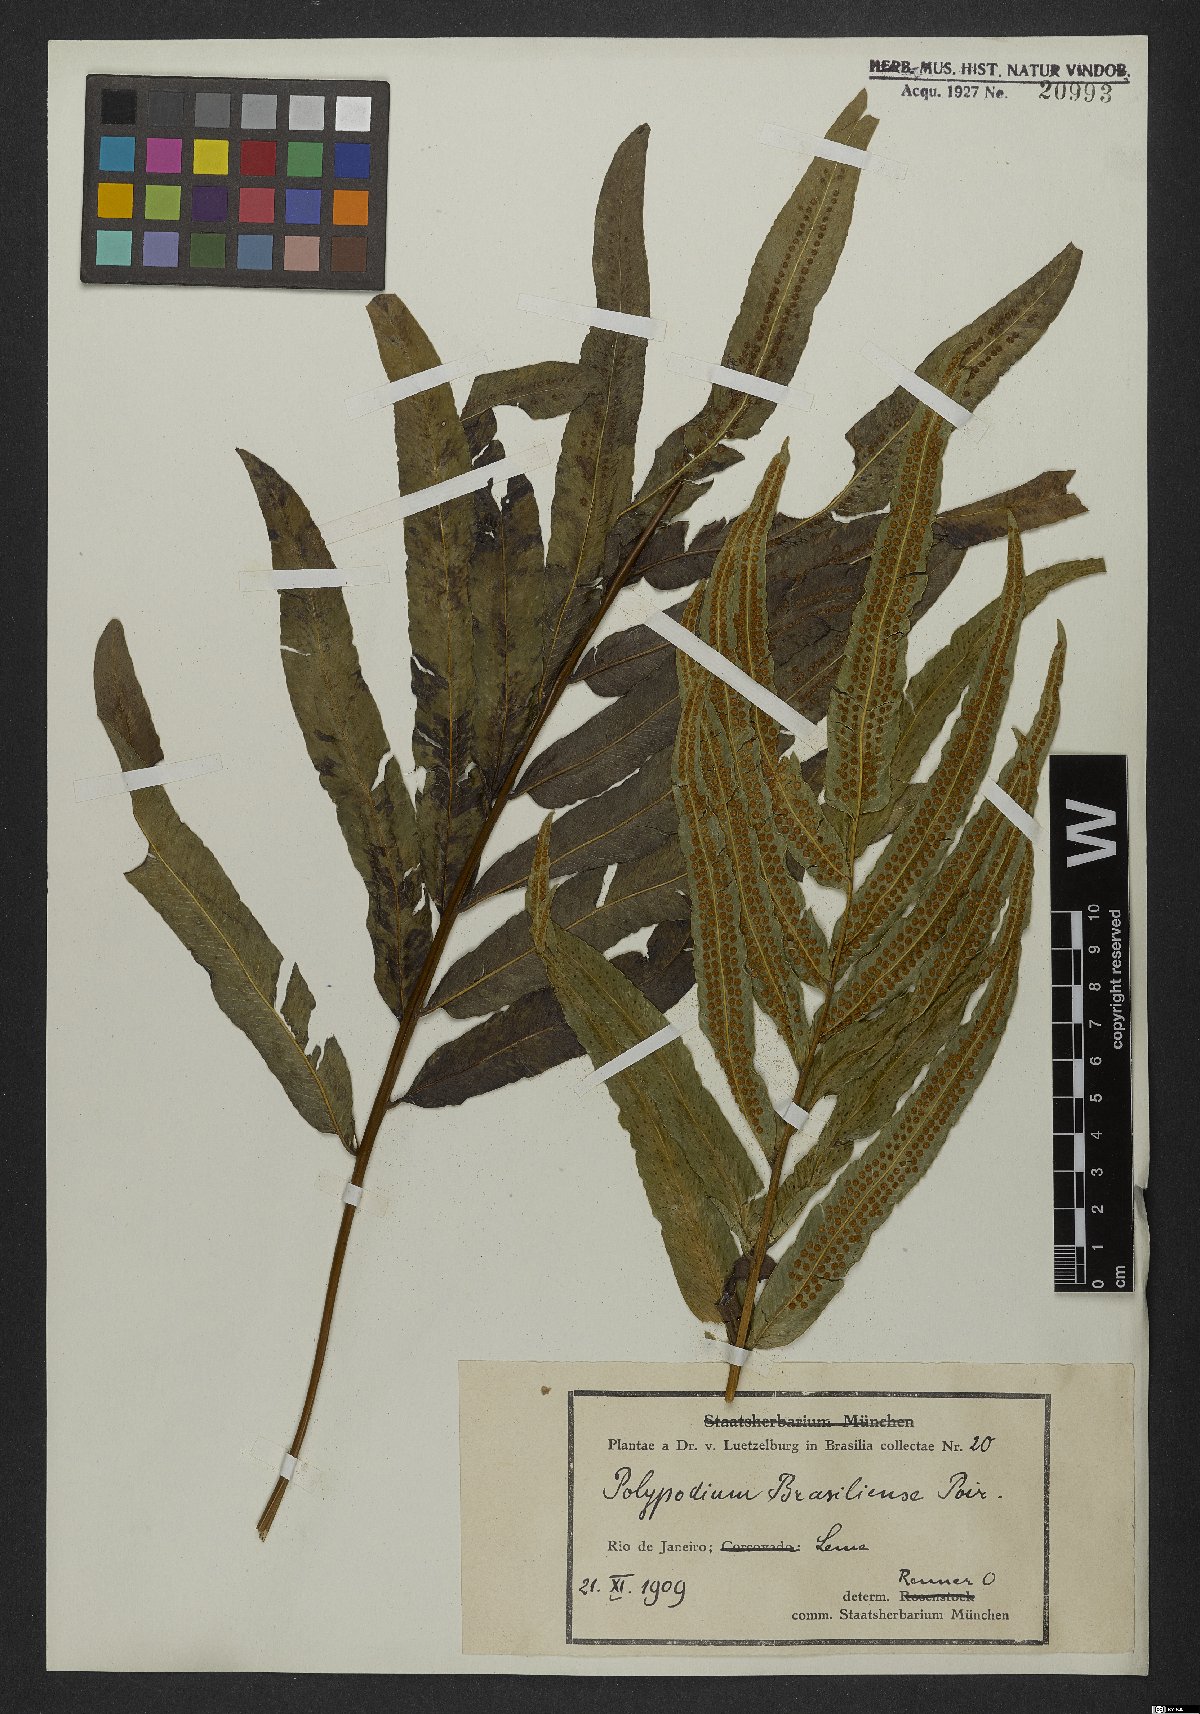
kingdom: Plantae
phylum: Tracheophyta
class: Polypodiopsida
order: Polypodiales
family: Polypodiaceae
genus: Serpocaulon
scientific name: Serpocaulon triseriale
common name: Angle-vein fern
